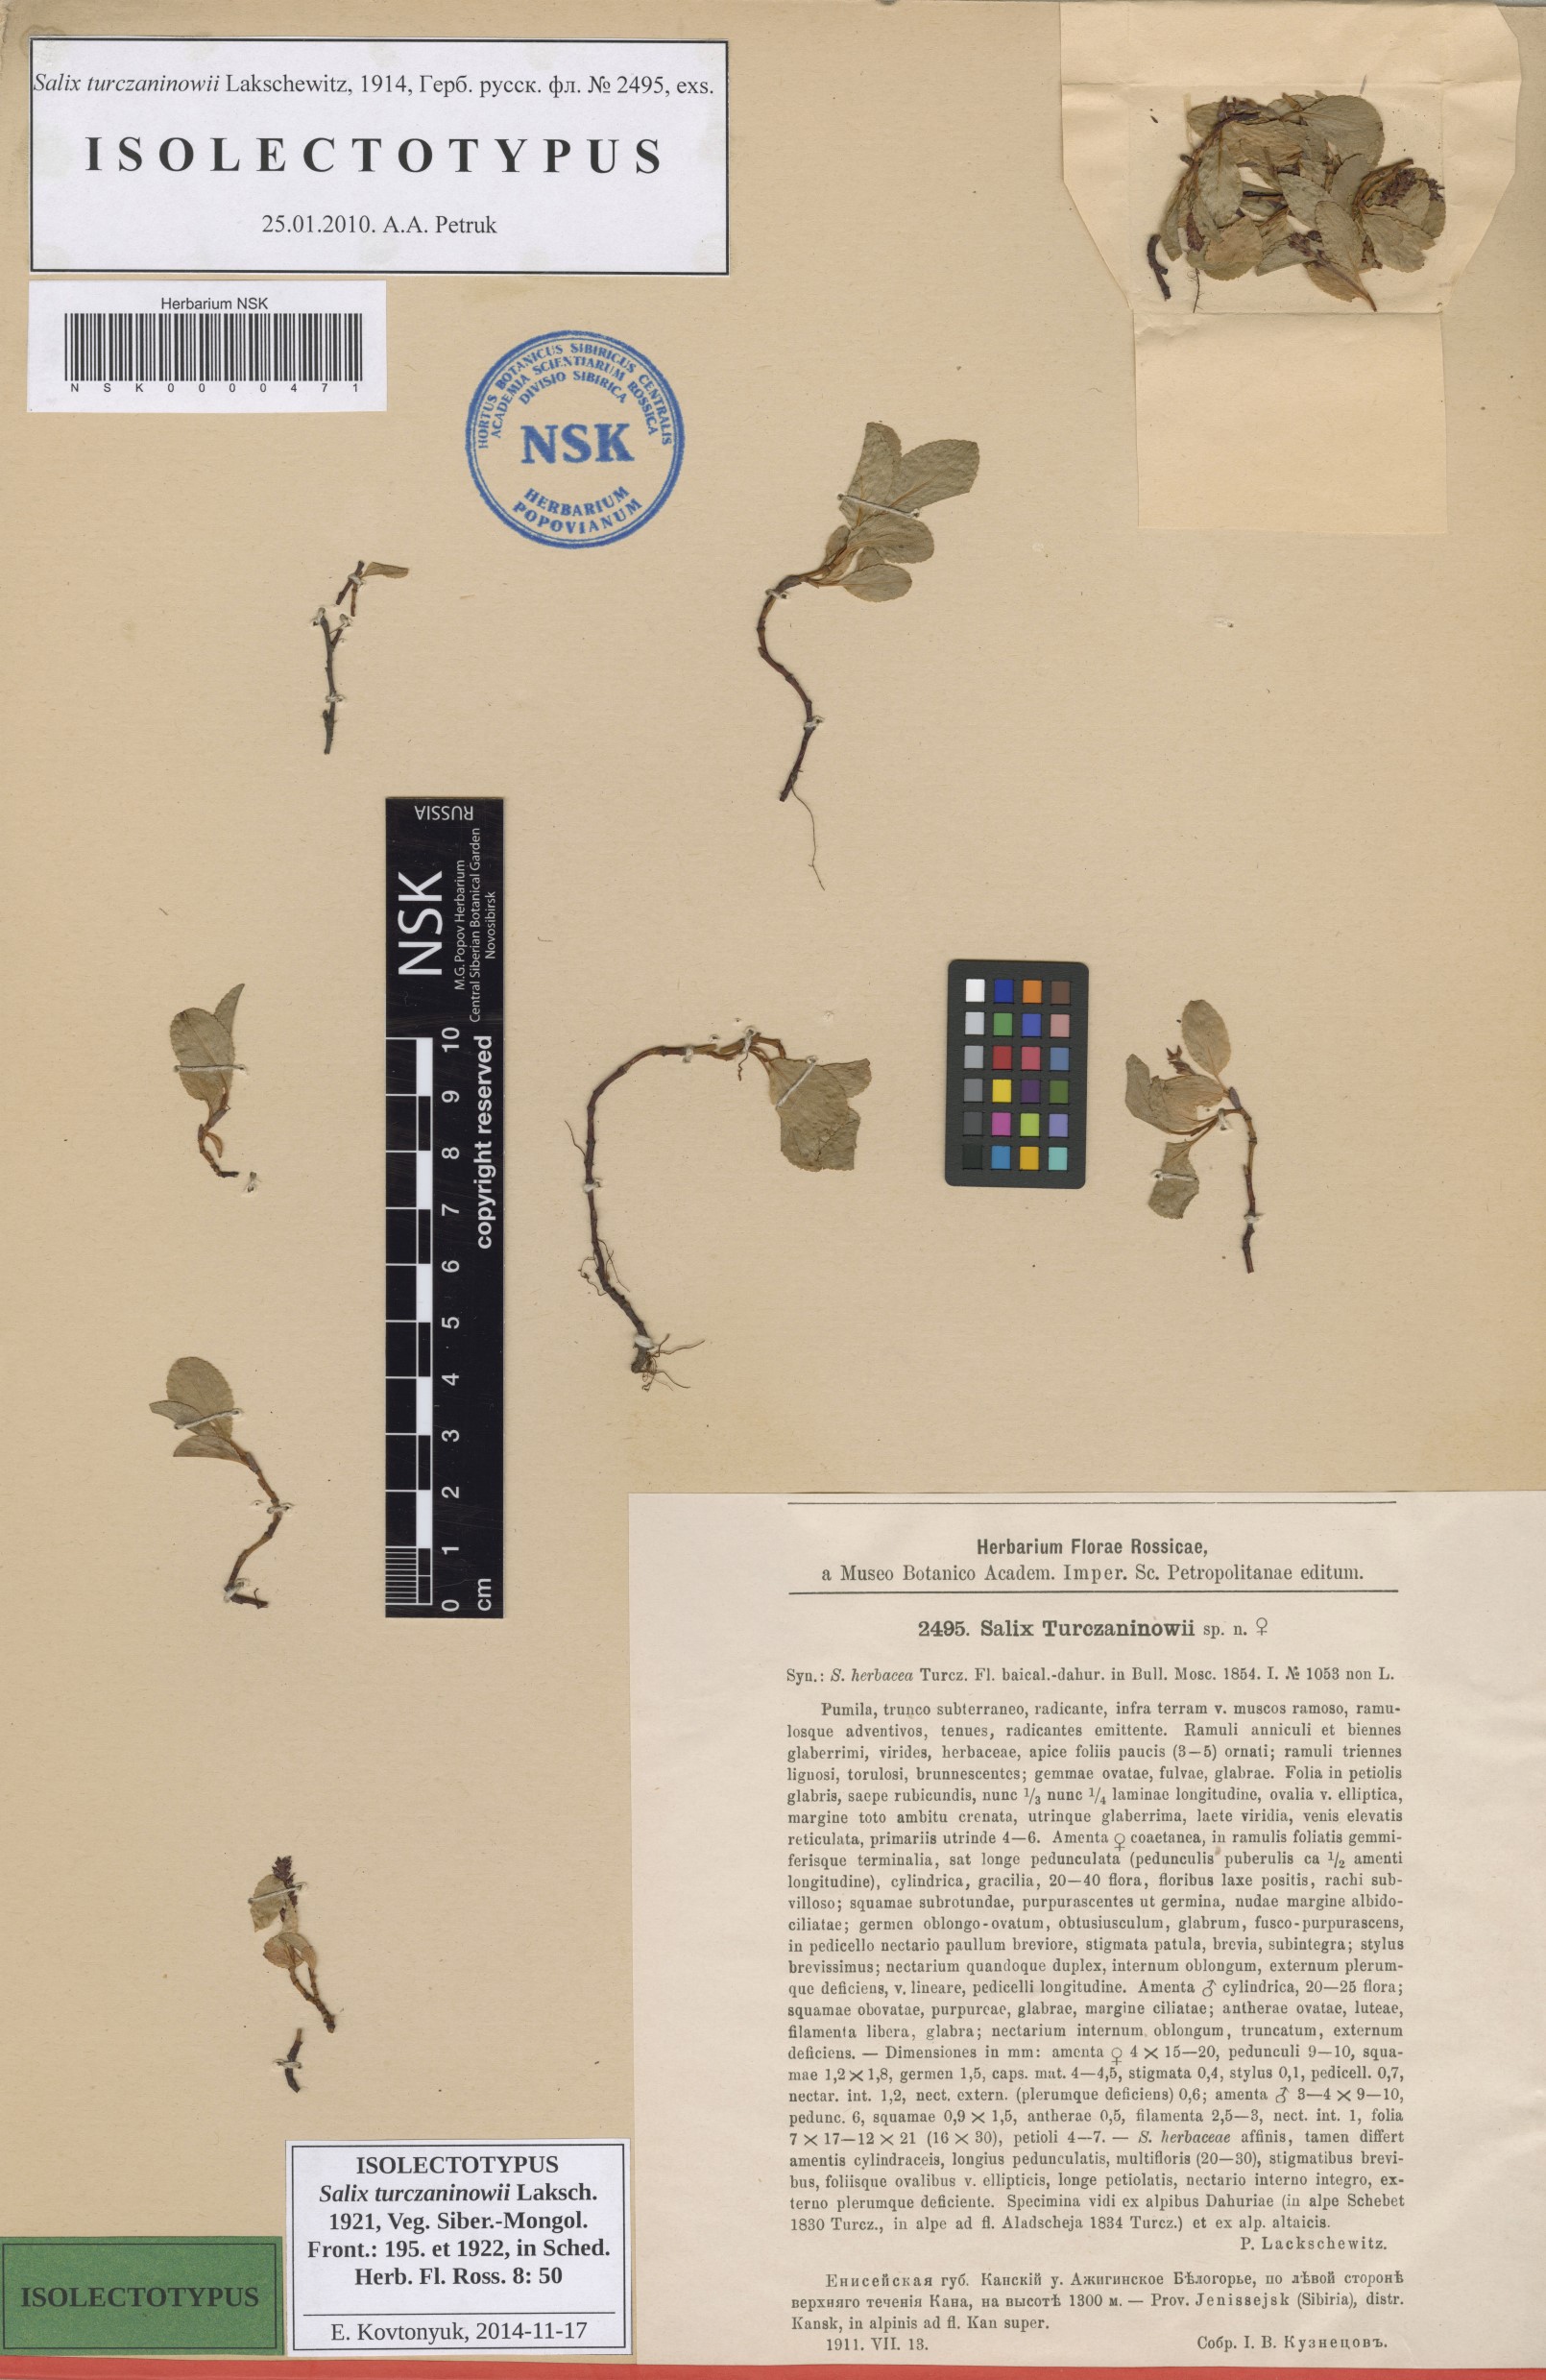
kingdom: Plantae
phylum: Tracheophyta
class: Magnoliopsida
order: Malpighiales
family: Salicaceae
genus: Salix
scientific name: Salix turczaninowii
